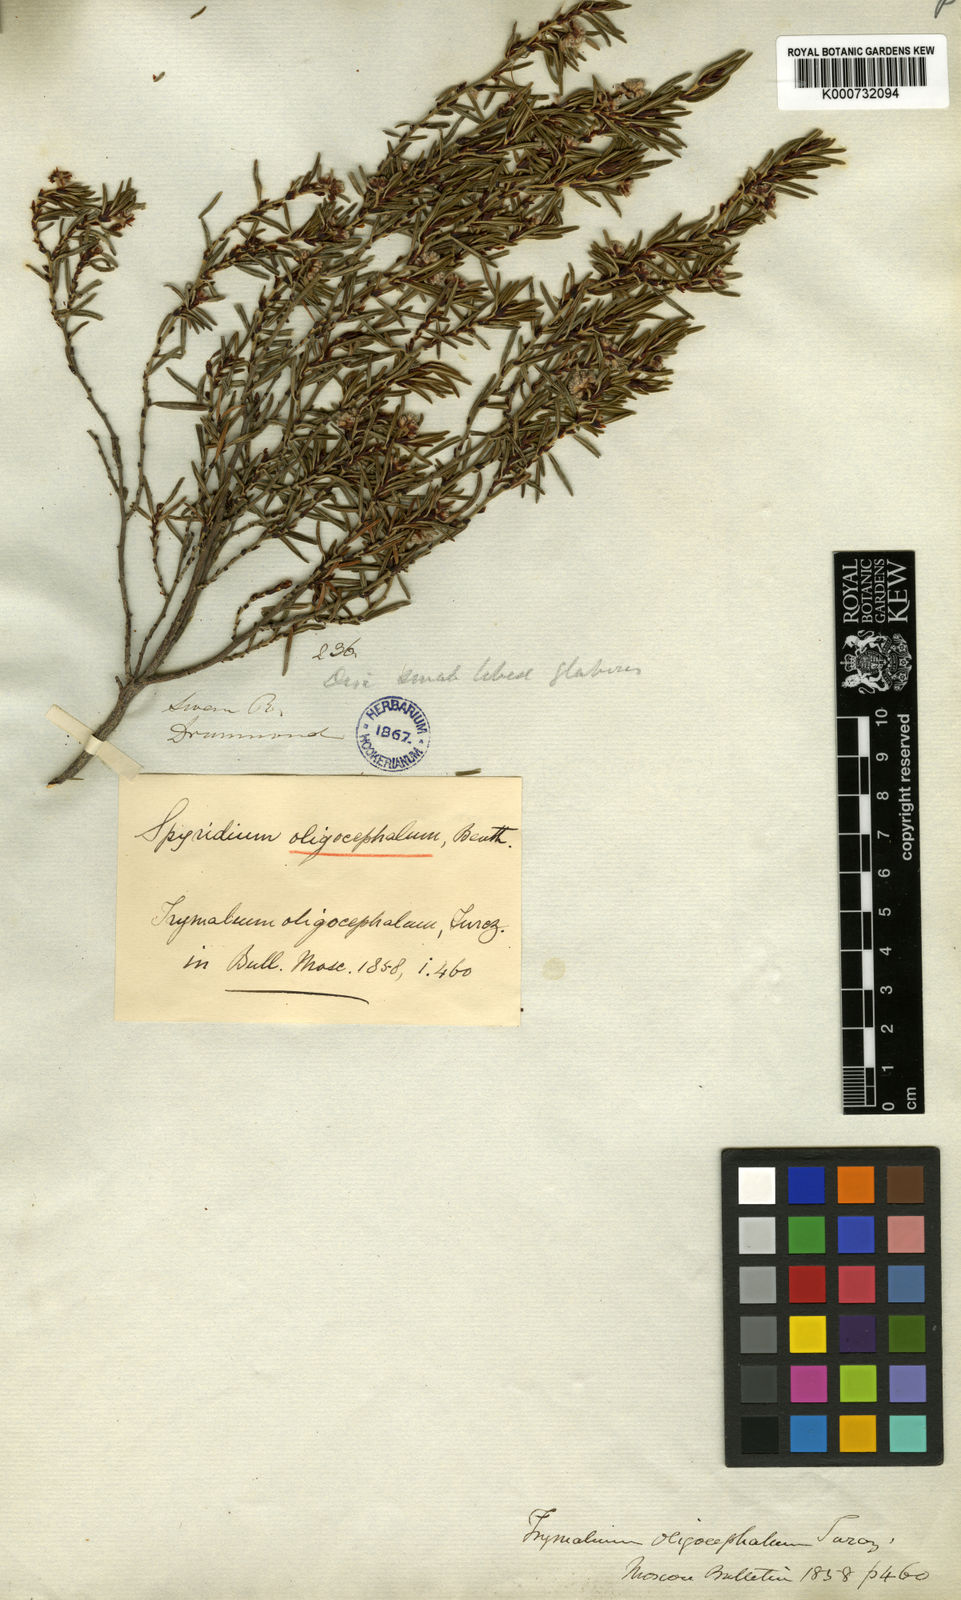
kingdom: Plantae
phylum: Tracheophyta
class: Magnoliopsida
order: Rosales
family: Rhamnaceae
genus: Spyridium
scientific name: Spyridium oligocephalum
